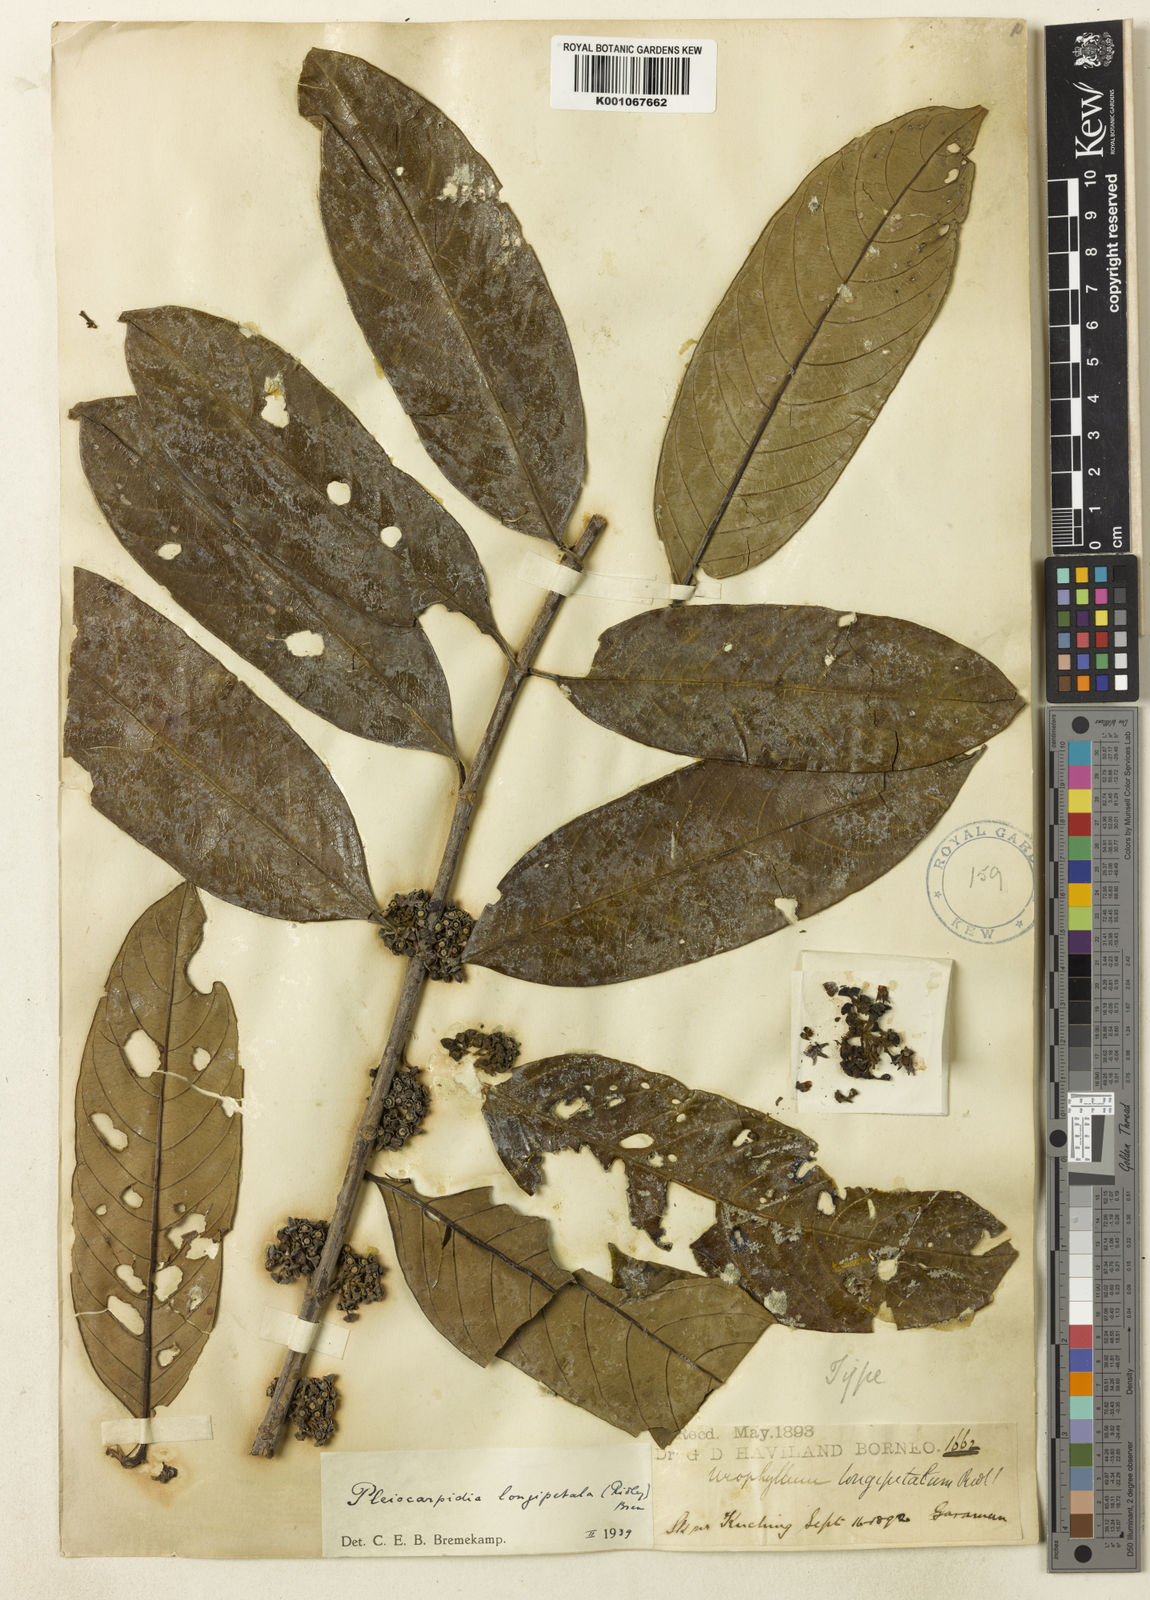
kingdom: Plantae
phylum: Tracheophyta
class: Magnoliopsida
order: Gentianales
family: Rubiaceae
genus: Urophyllum
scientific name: Urophyllum longipetalum
